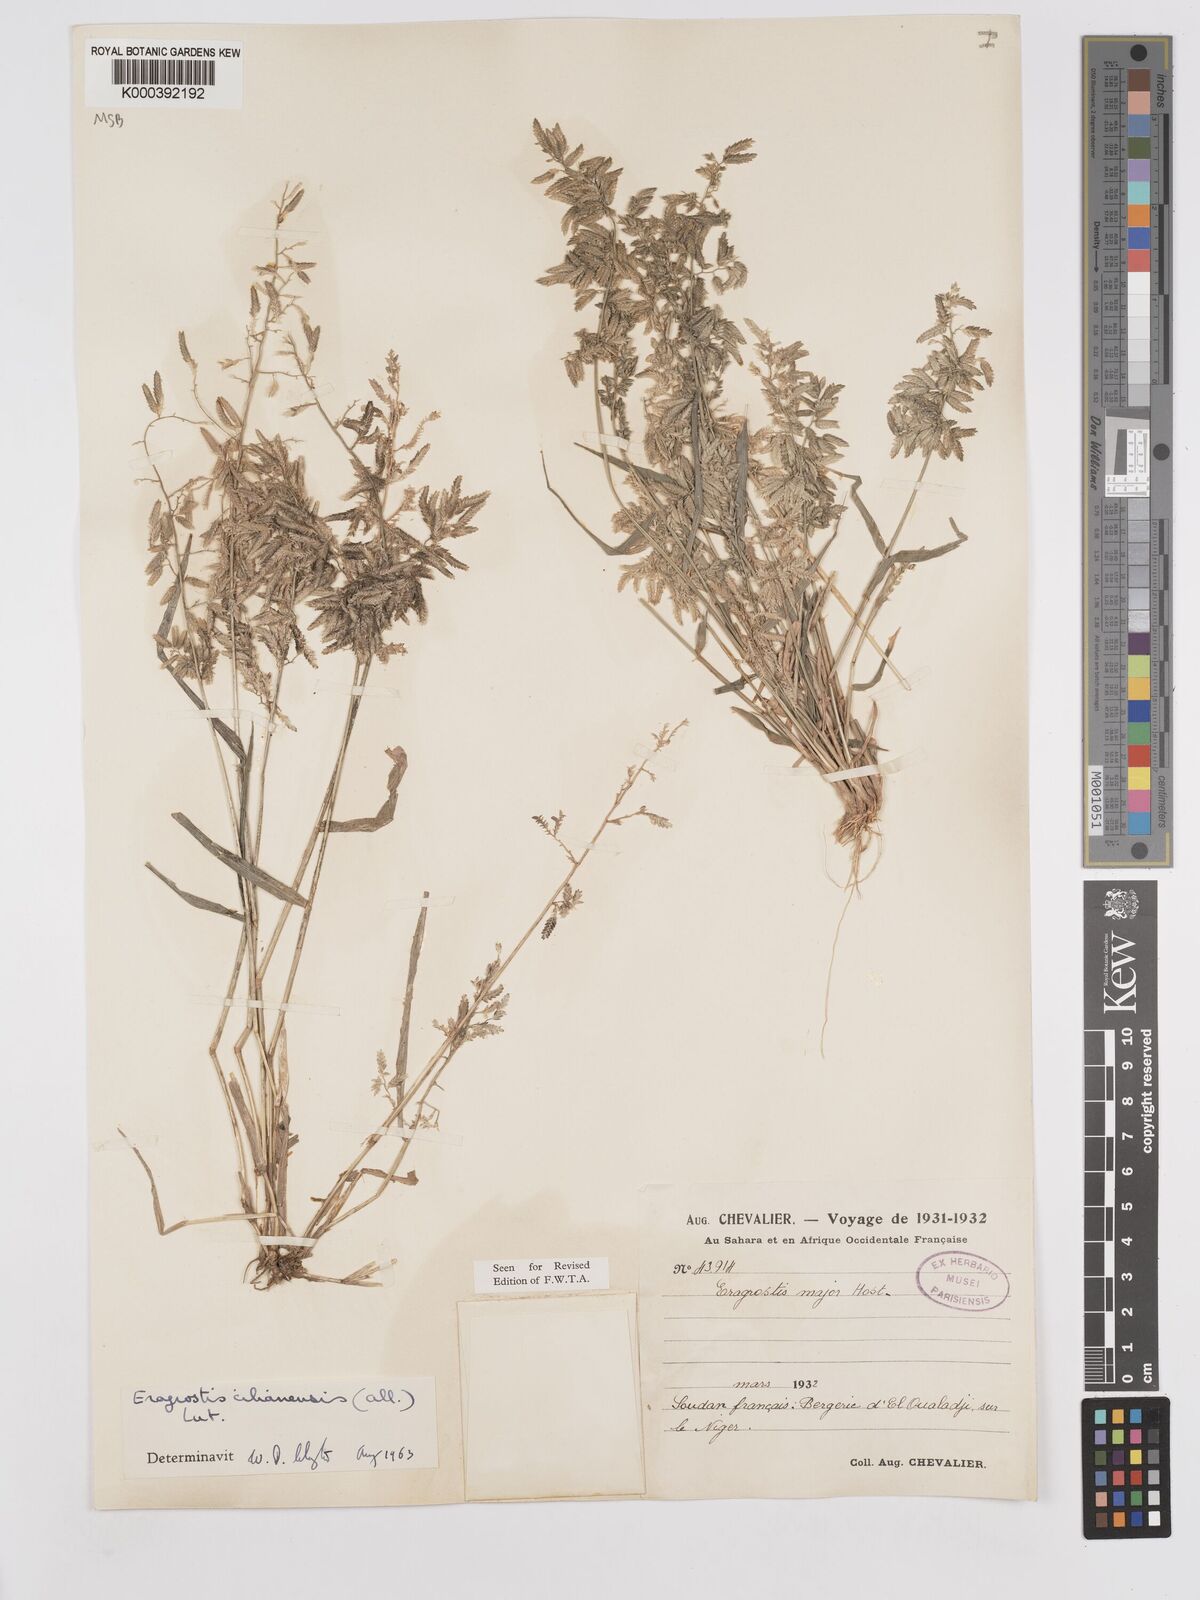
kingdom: Plantae
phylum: Tracheophyta
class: Liliopsida
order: Poales
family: Poaceae
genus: Eragrostis
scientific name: Eragrostis cilianensis
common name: Stinkgrass
